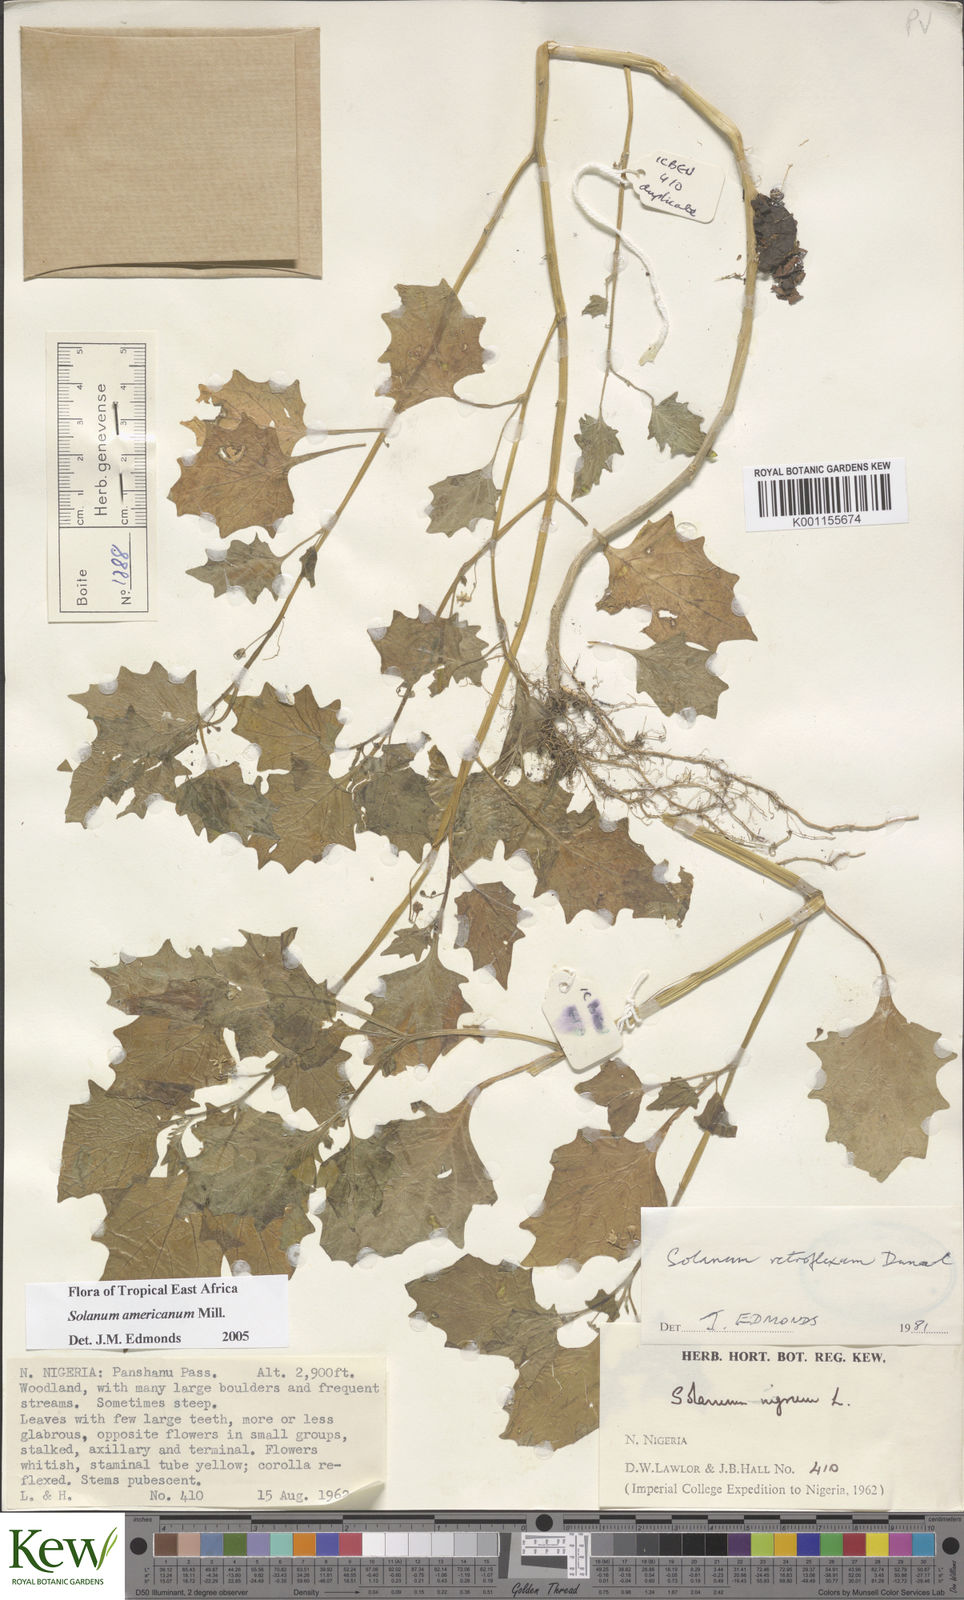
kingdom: Plantae
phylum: Tracheophyta
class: Magnoliopsida
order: Solanales
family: Solanaceae
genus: Solanum
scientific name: Solanum americanum
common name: American black nightshade
